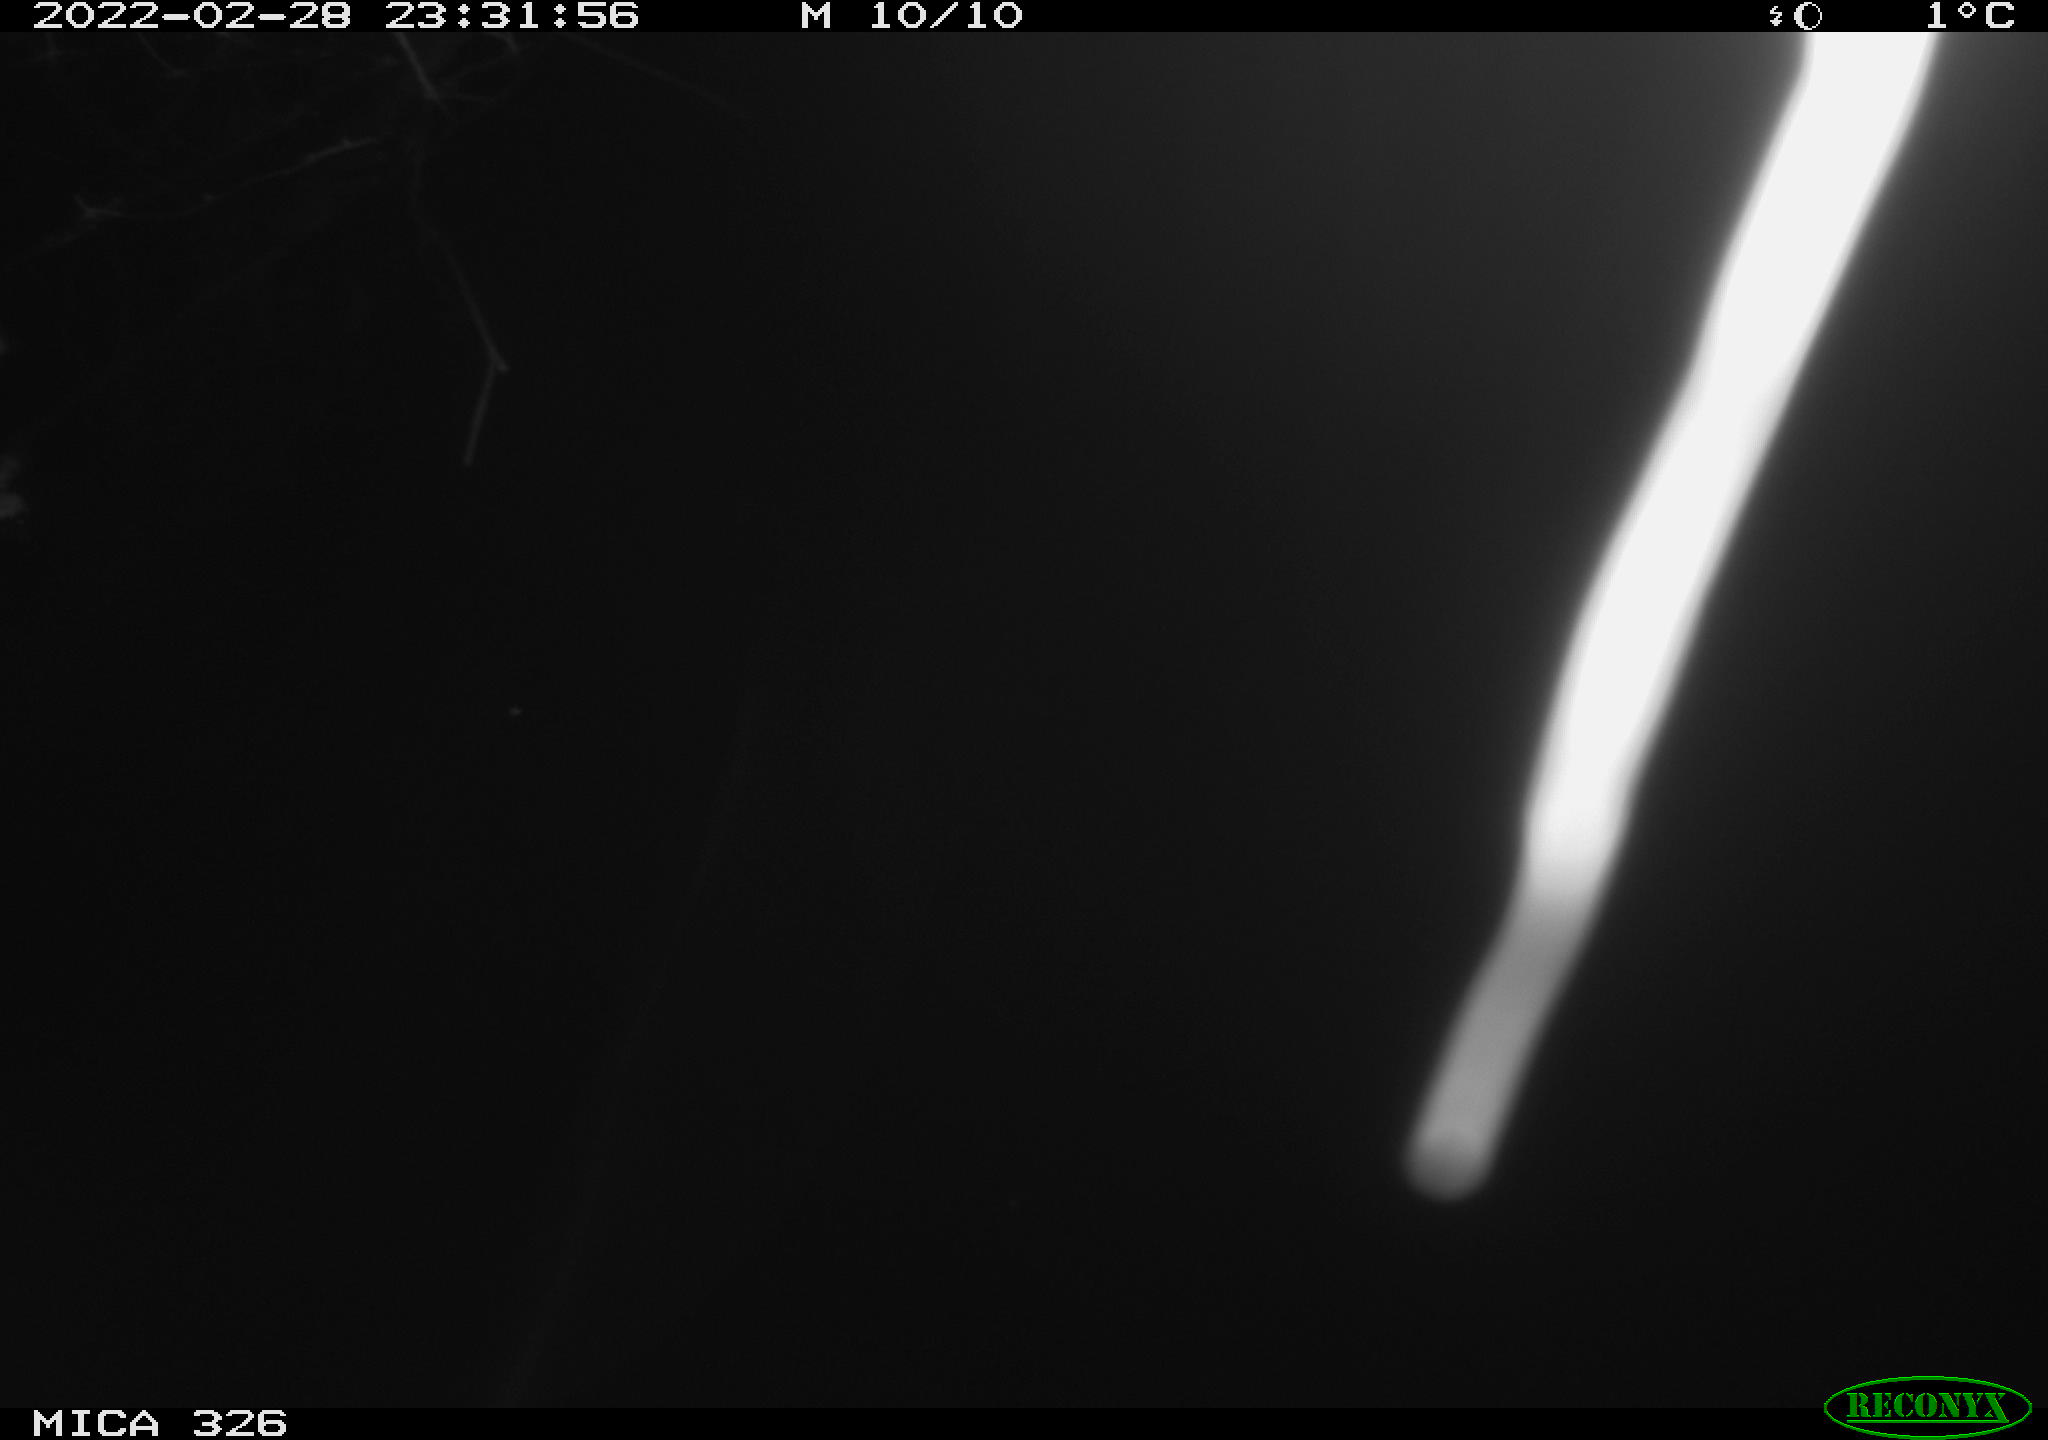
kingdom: Animalia
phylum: Chordata
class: Mammalia
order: Rodentia
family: Cricetidae
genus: Ondatra
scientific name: Ondatra zibethicus
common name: Muskrat
